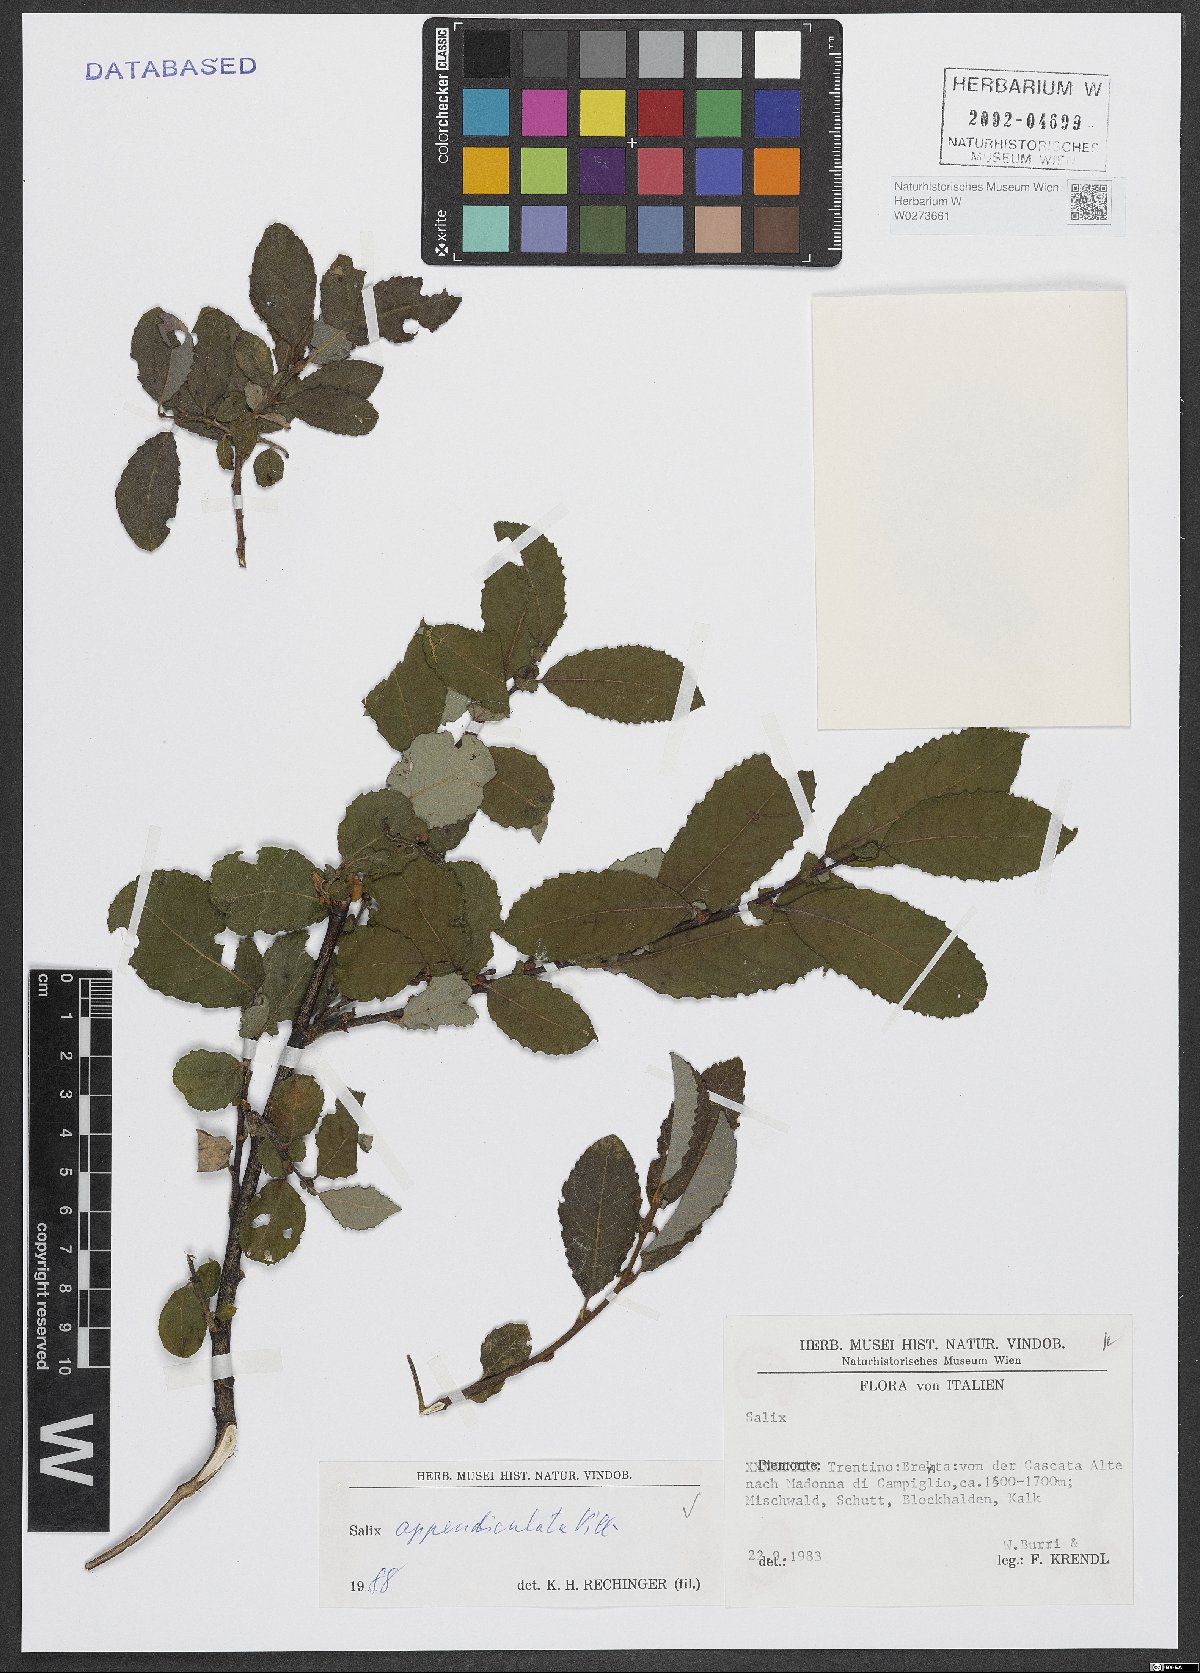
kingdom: Plantae
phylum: Tracheophyta
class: Magnoliopsida
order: Malpighiales
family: Salicaceae
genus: Salix
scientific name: Salix appendiculata
